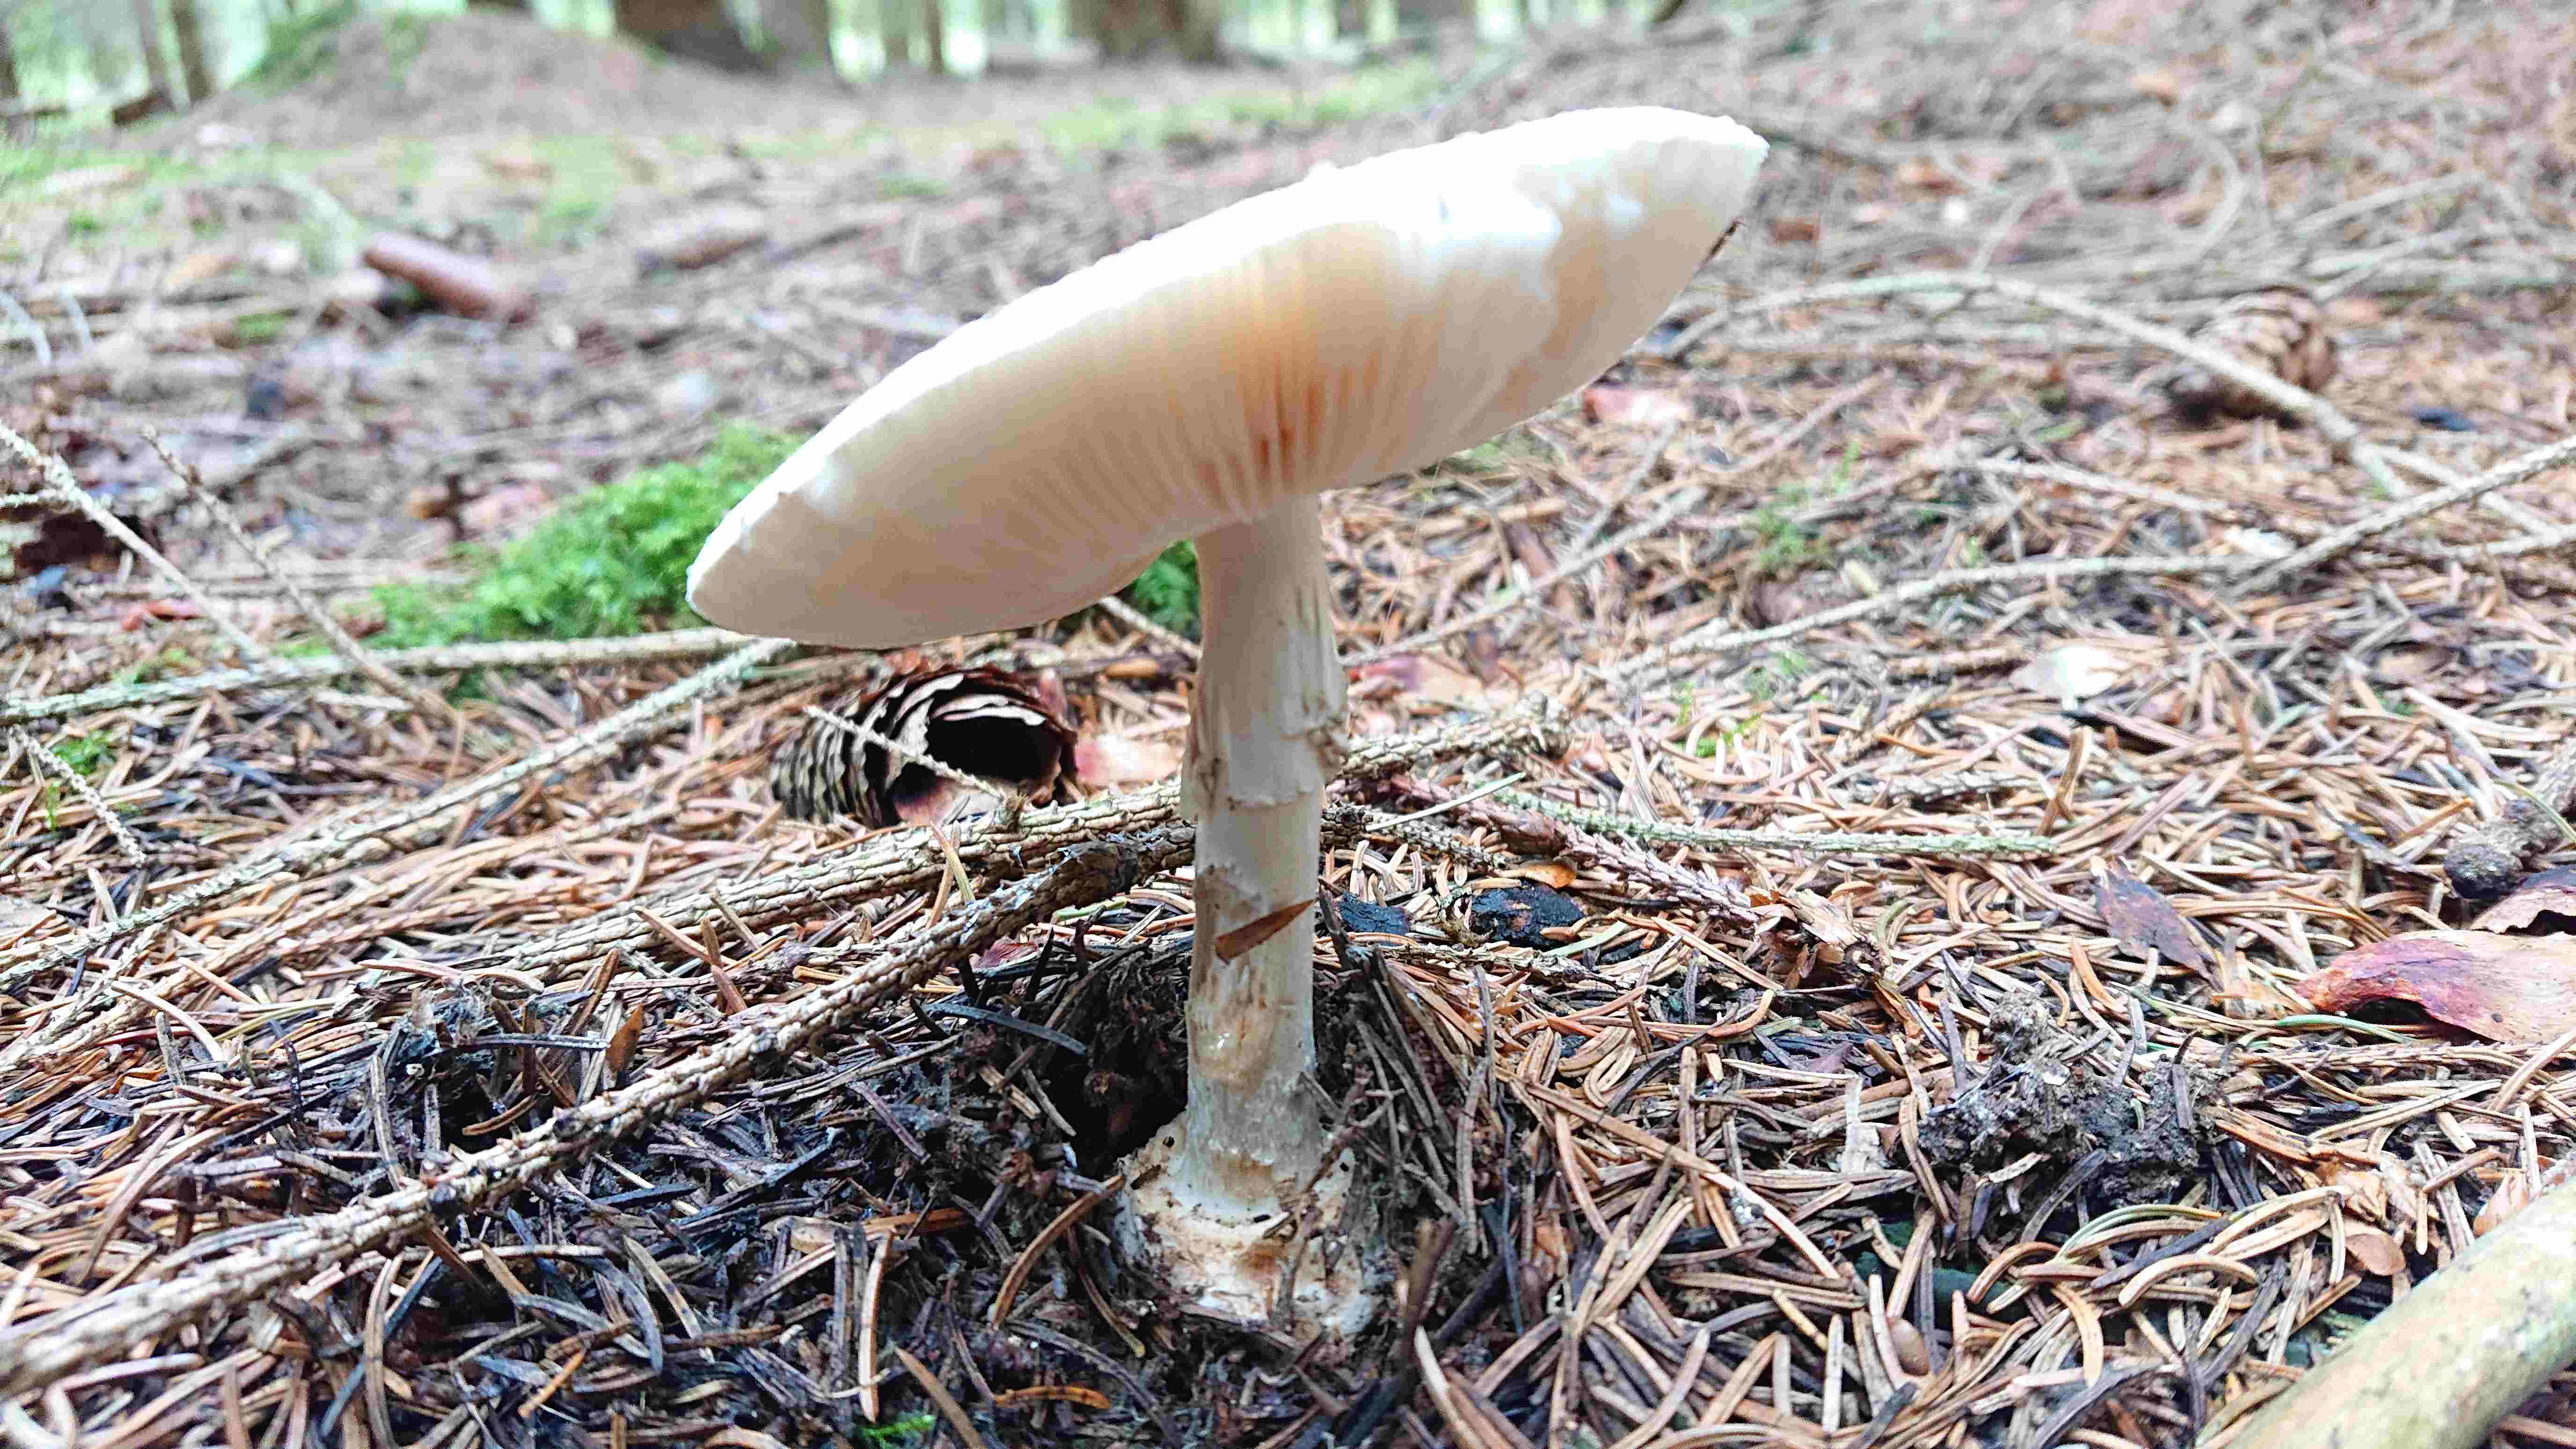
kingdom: Fungi
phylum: Basidiomycota
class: Agaricomycetes
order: Agaricales
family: Amanitaceae
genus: Amanita
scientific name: Amanita citrina
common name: kugleknoldet fluesvamp
